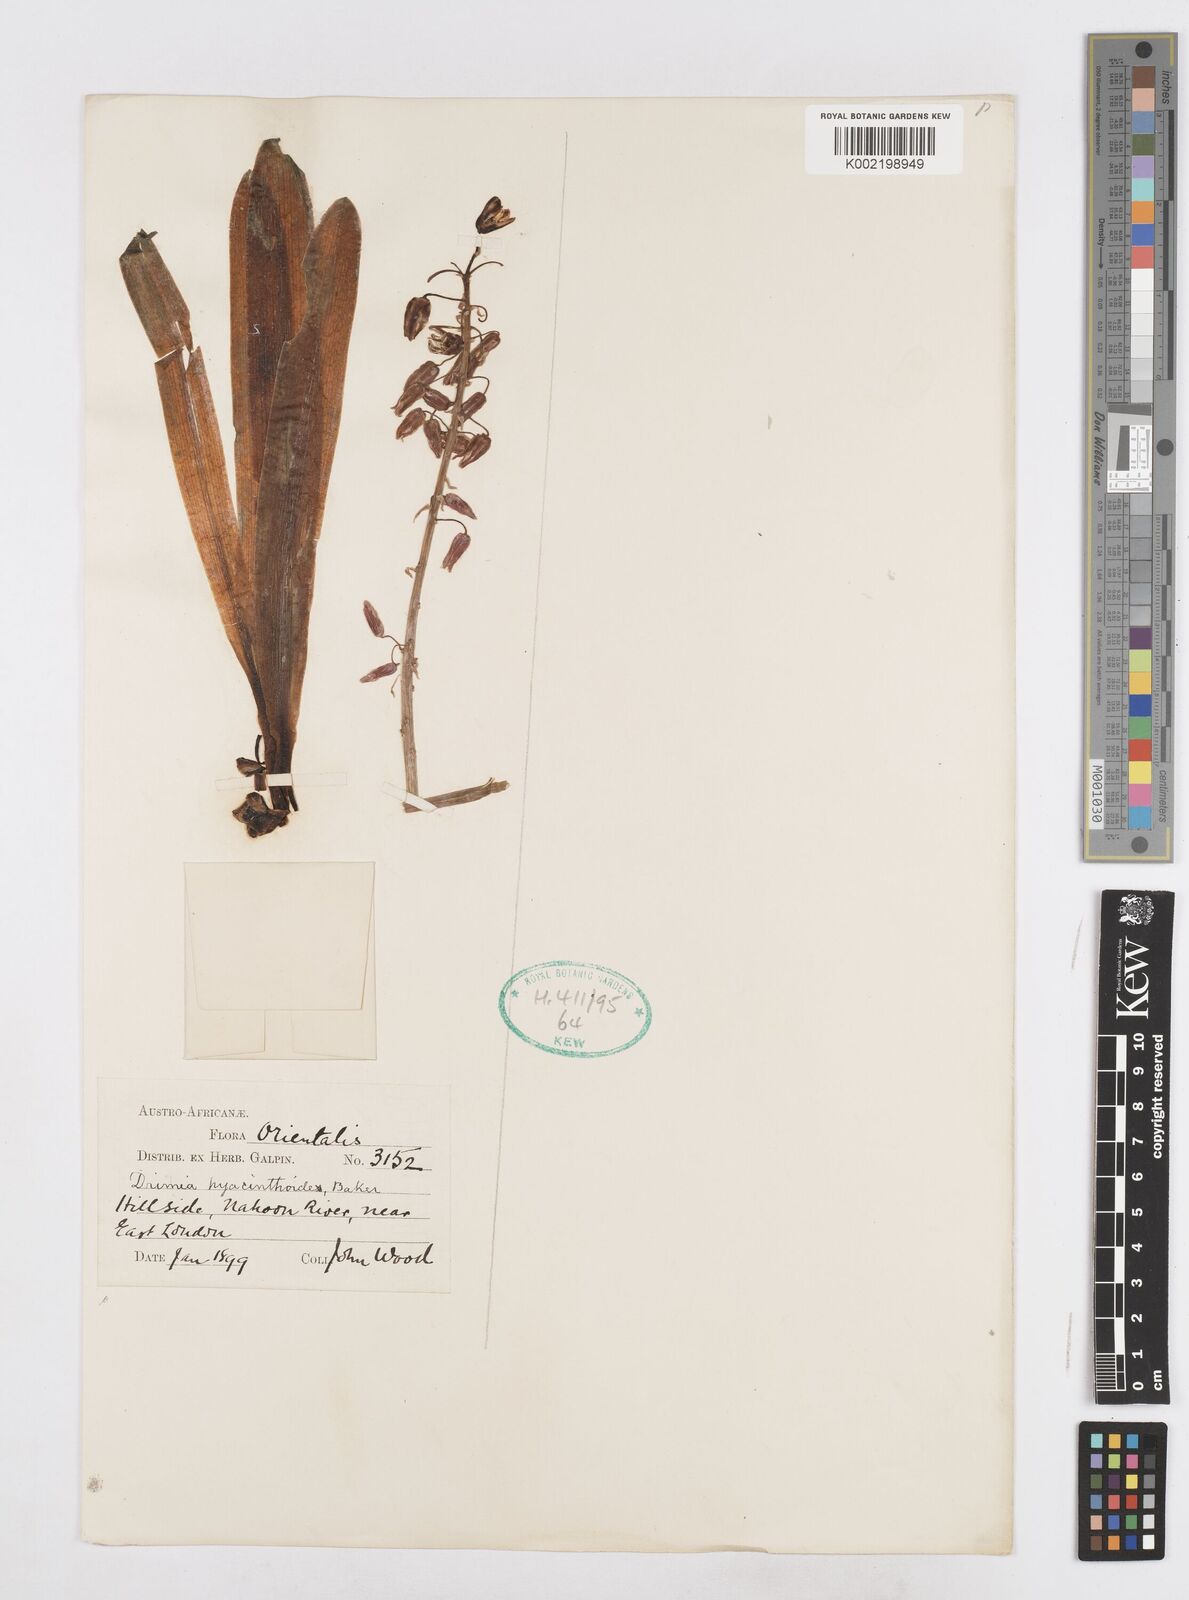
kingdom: Plantae
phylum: Tracheophyta
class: Liliopsida
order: Asparagales
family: Asparagaceae
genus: Drimia
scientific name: Drimia hyacinthoides
